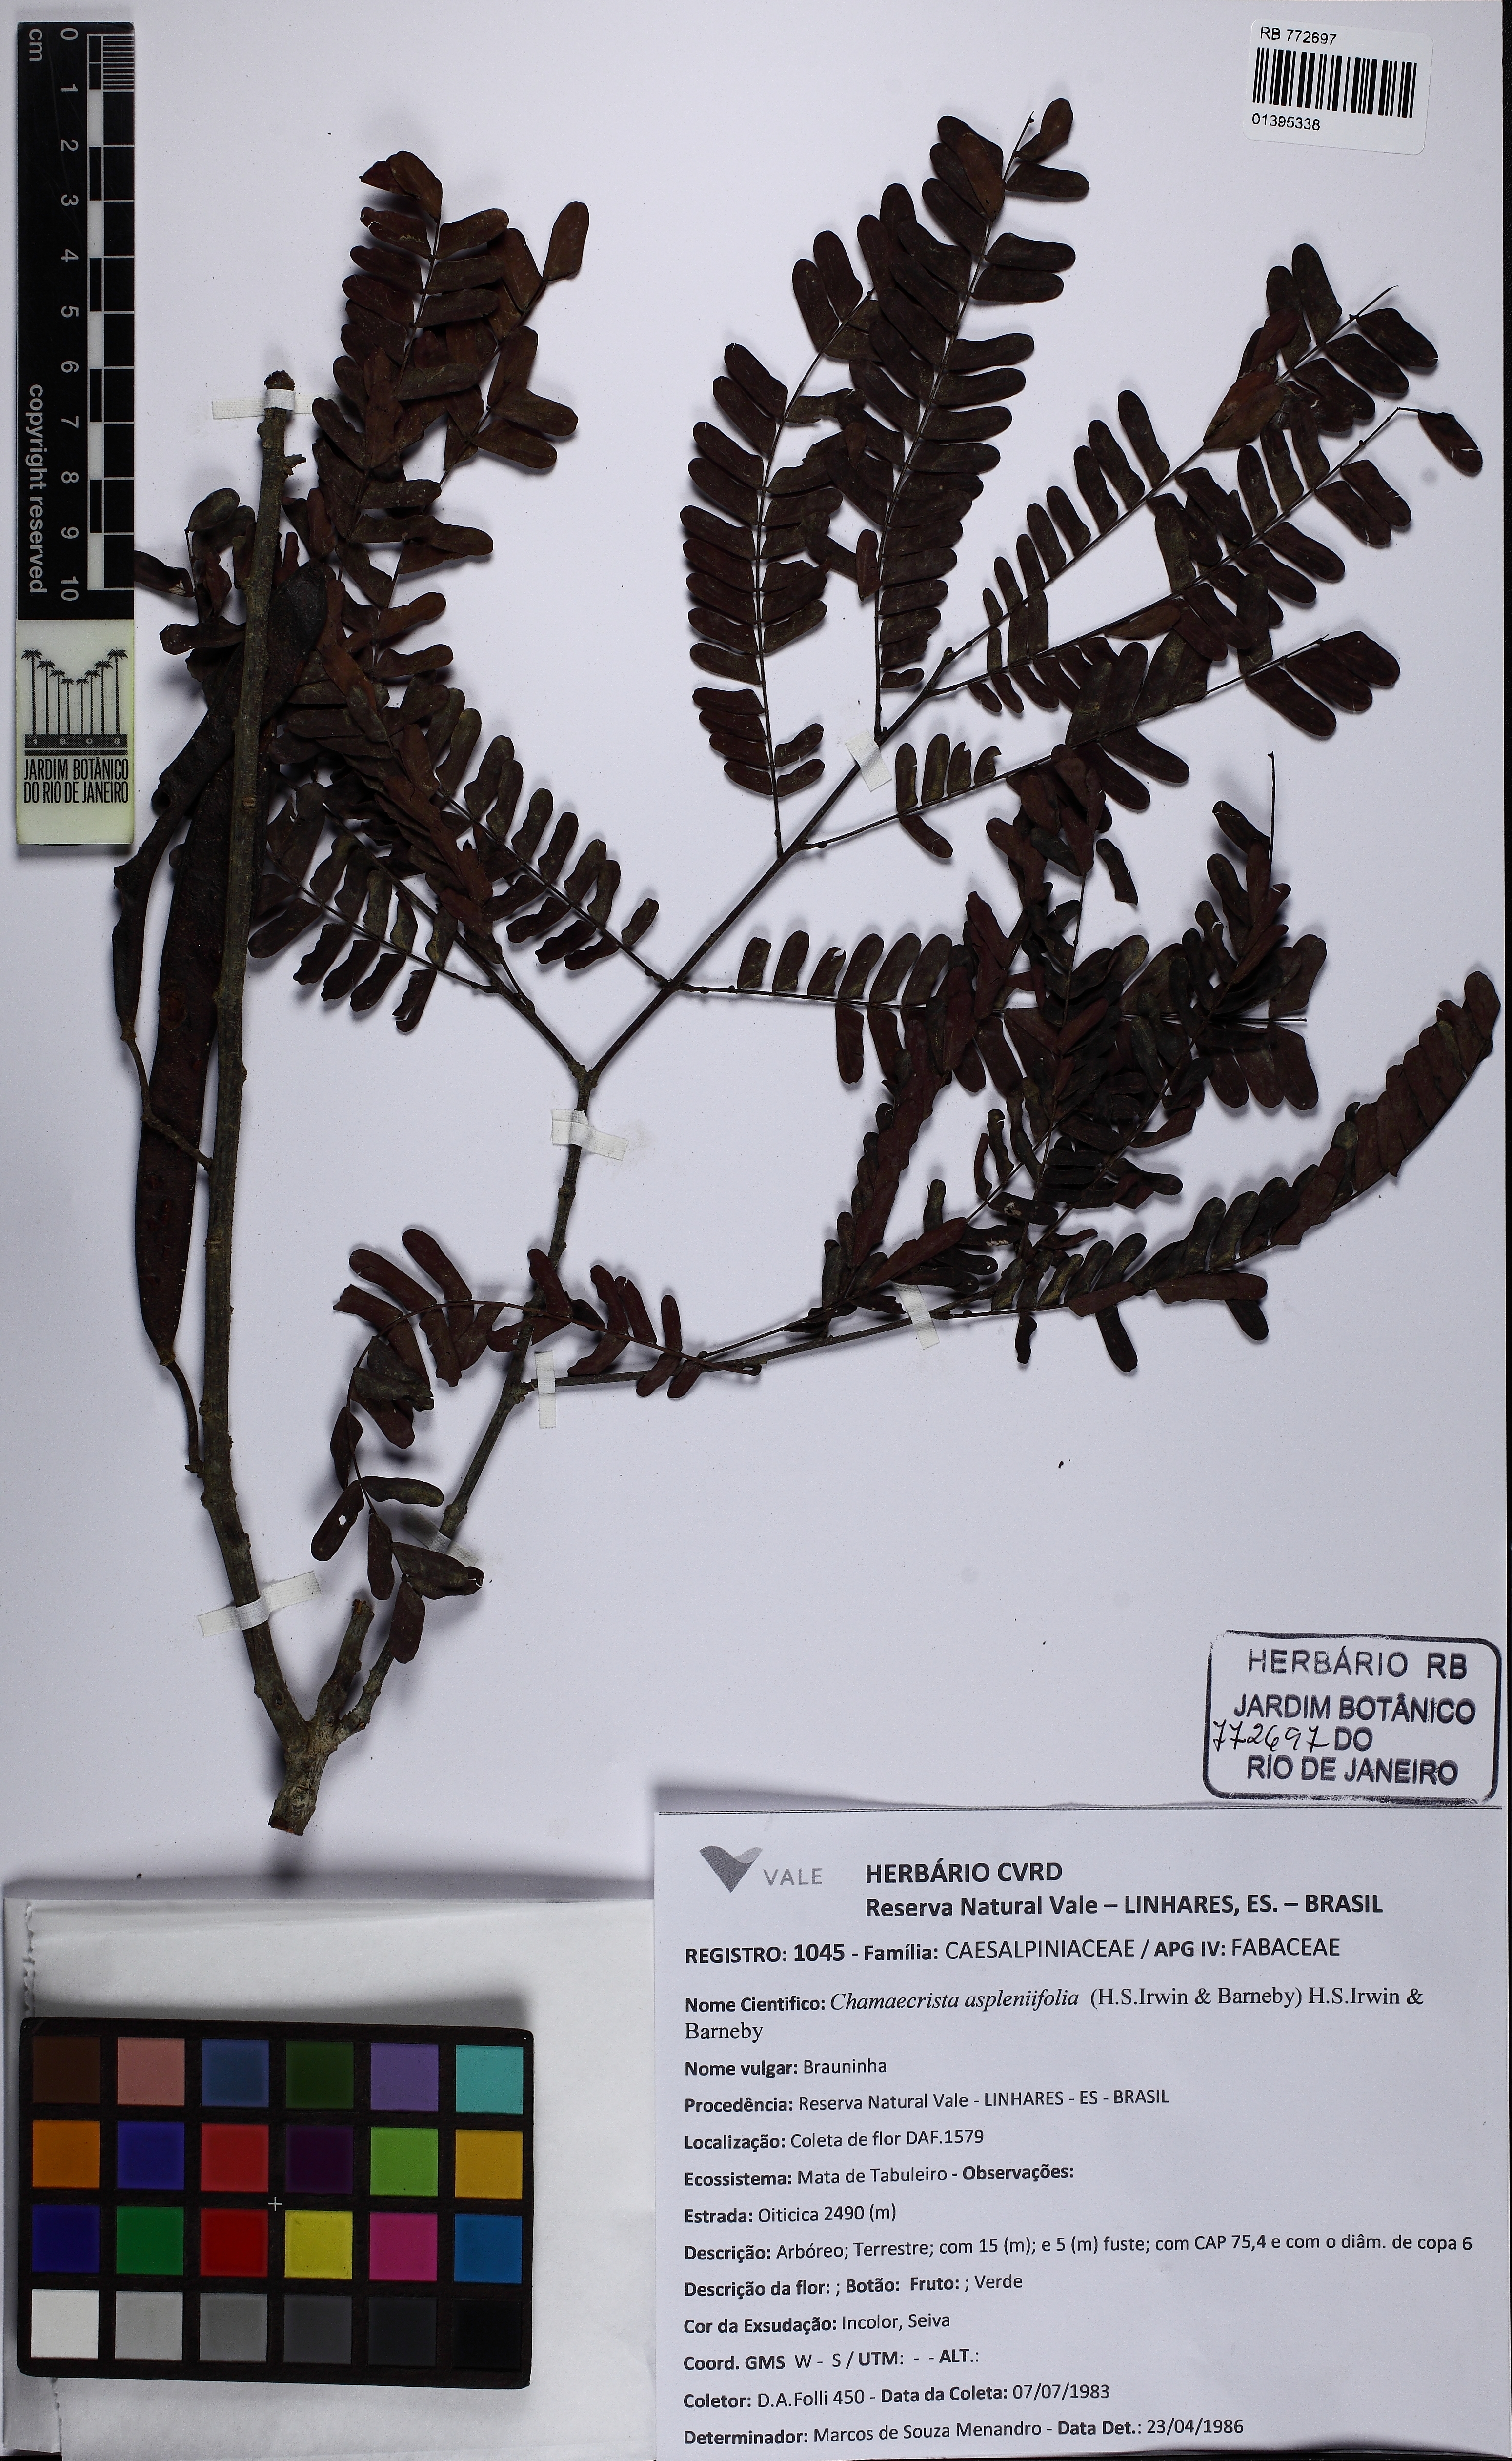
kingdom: Plantae
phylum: Tracheophyta
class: Magnoliopsida
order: Fabales
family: Fabaceae
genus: Chamaecrista
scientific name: Chamaecrista aspleniifolia
